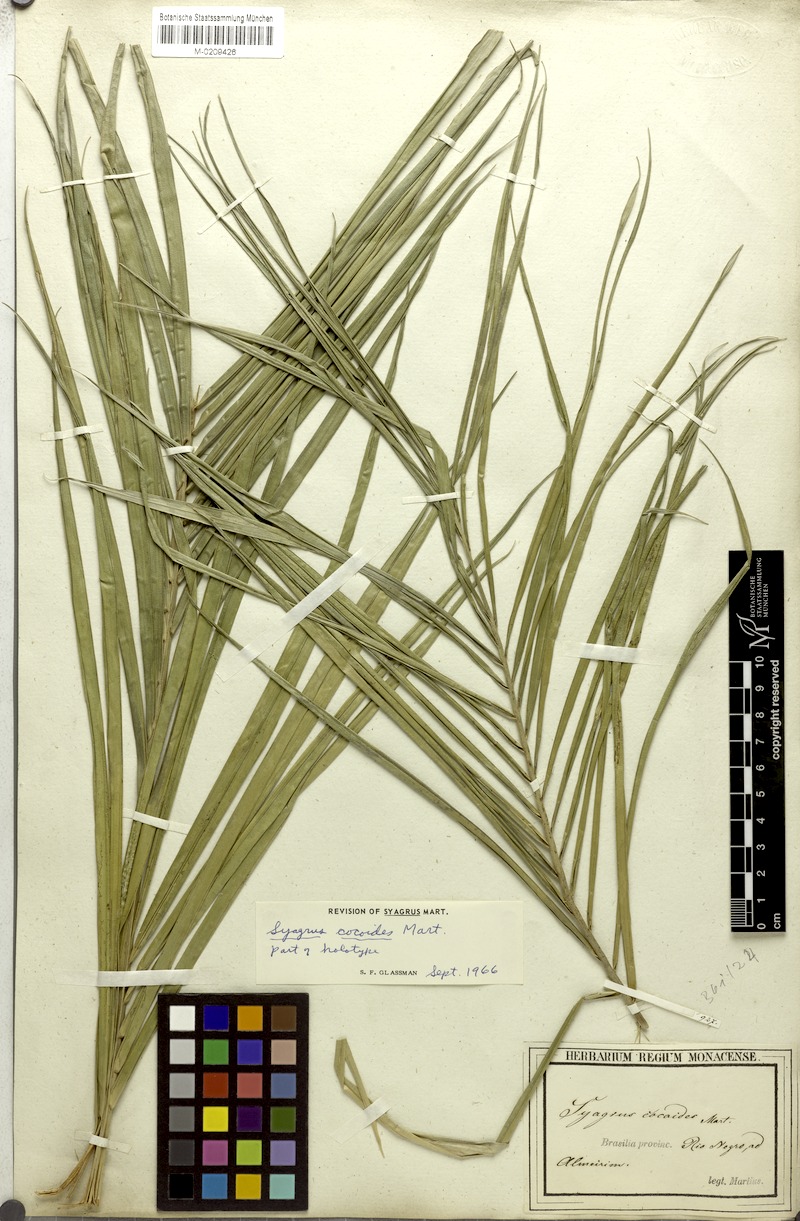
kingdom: Plantae
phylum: Tracheophyta
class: Liliopsida
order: Arecales
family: Arecaceae
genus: Syagrus
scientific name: Syagrus cocoides
